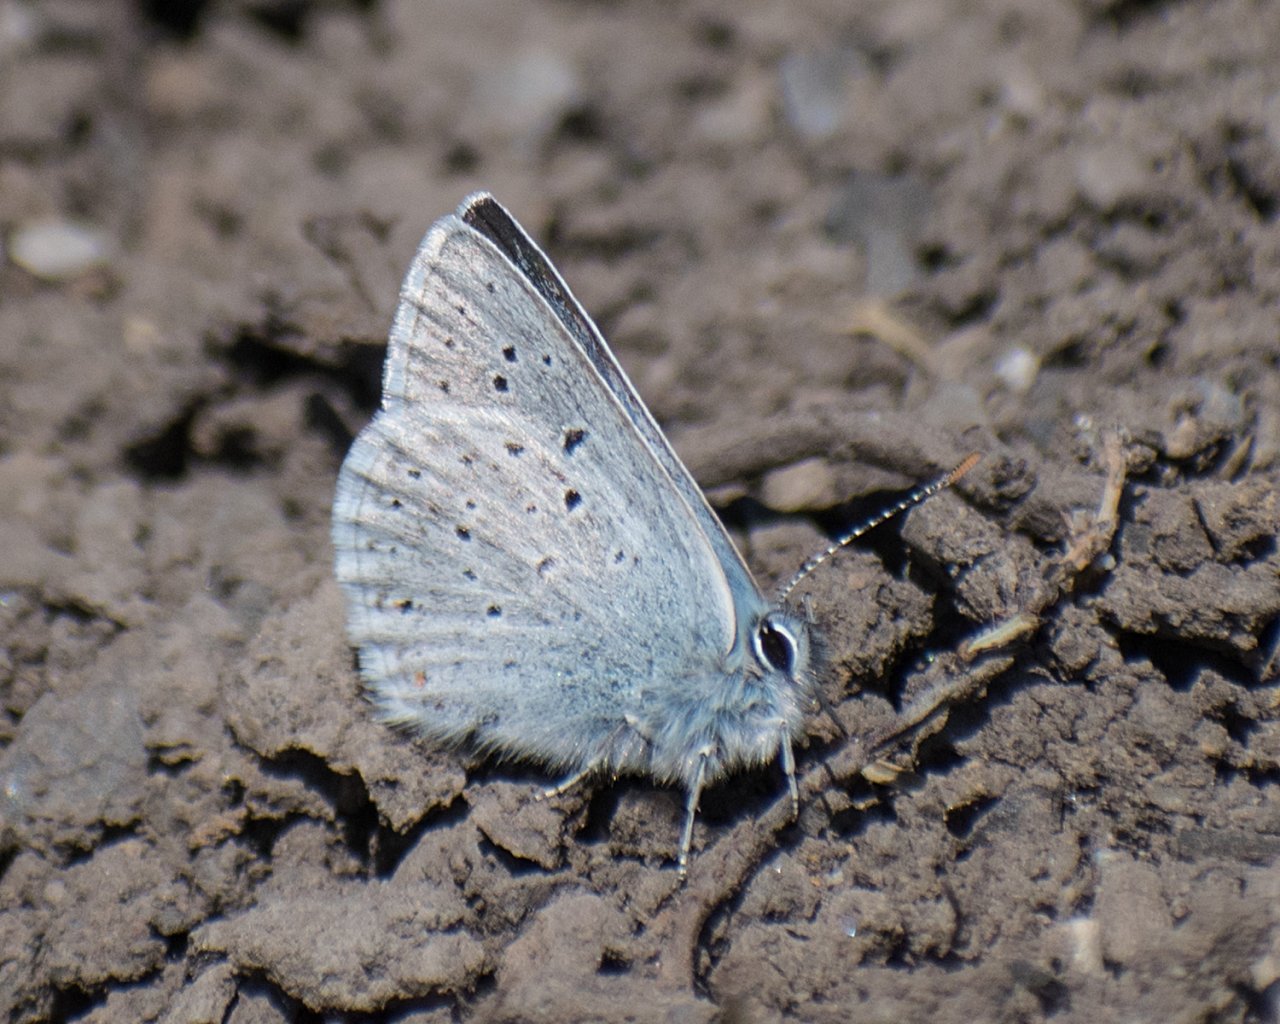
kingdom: Animalia
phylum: Arthropoda
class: Insecta
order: Lepidoptera
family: Lycaenidae
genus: Plebejus
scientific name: Plebejus saepiolus
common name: Greenish Blue
